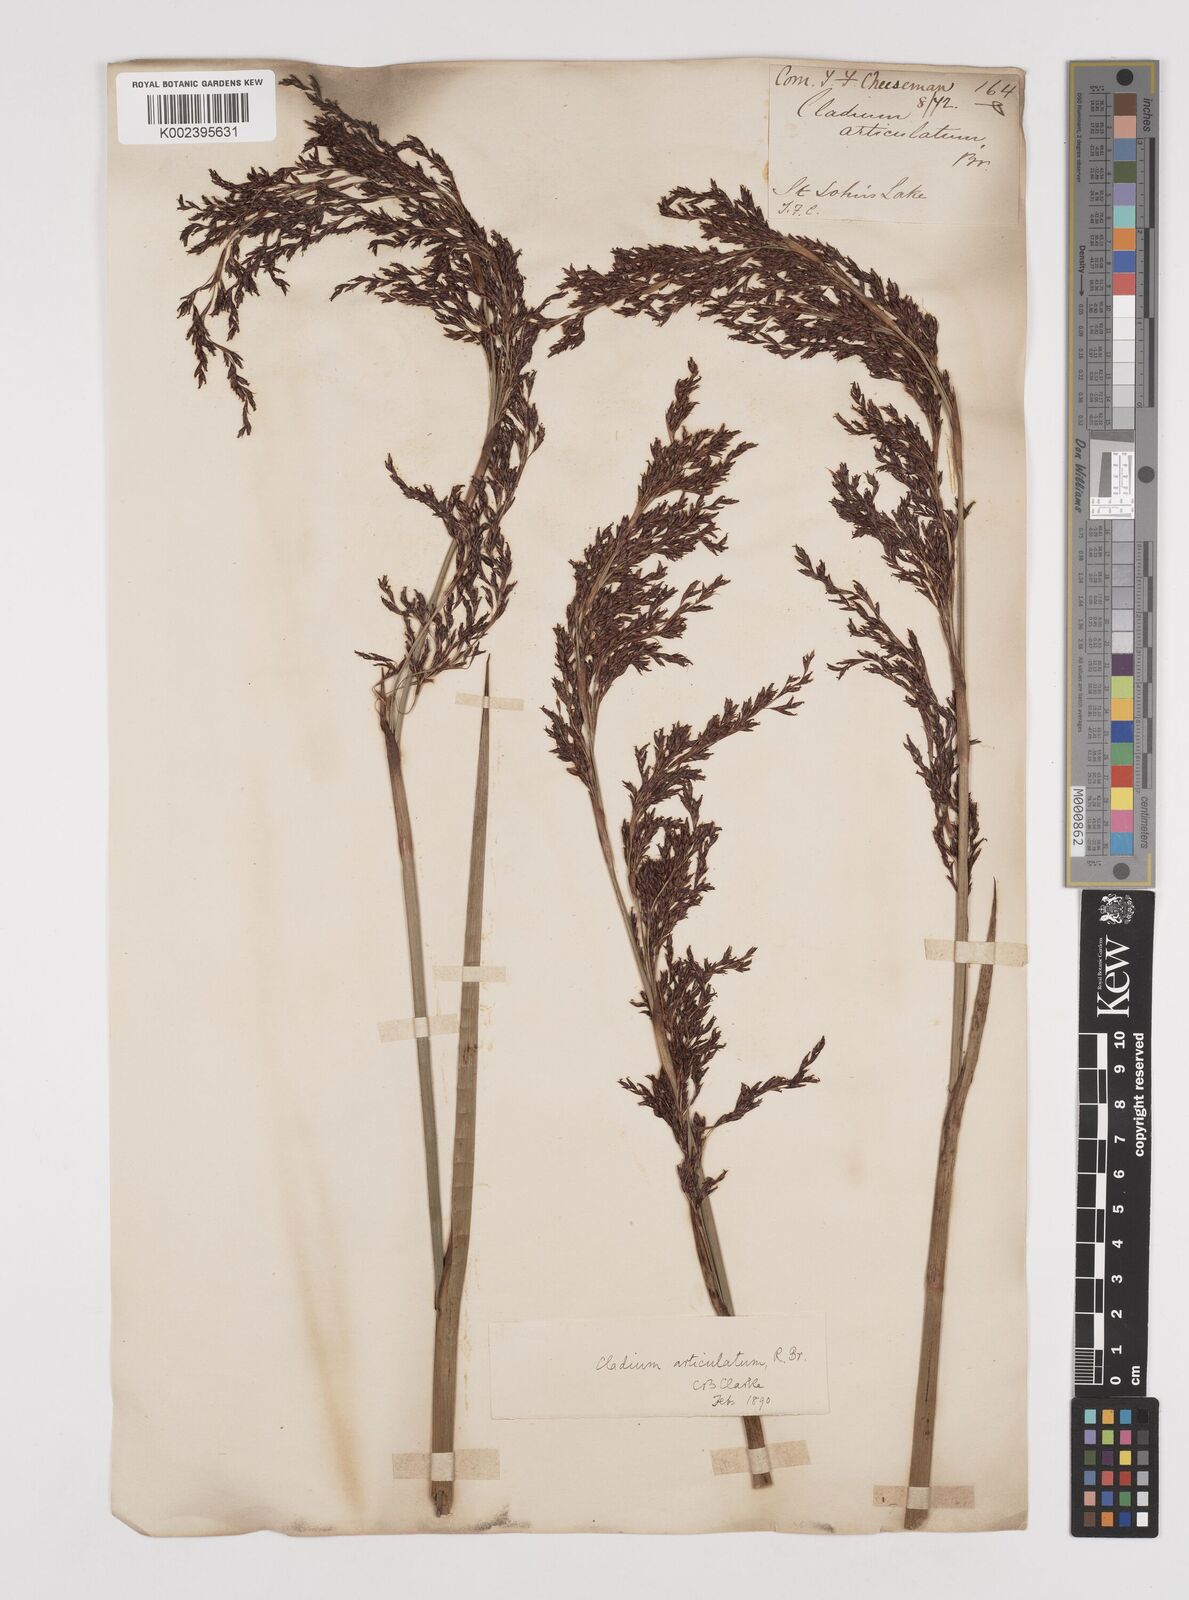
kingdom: Plantae
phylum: Tracheophyta
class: Liliopsida
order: Poales
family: Cyperaceae
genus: Machaerina
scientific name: Machaerina articulata
